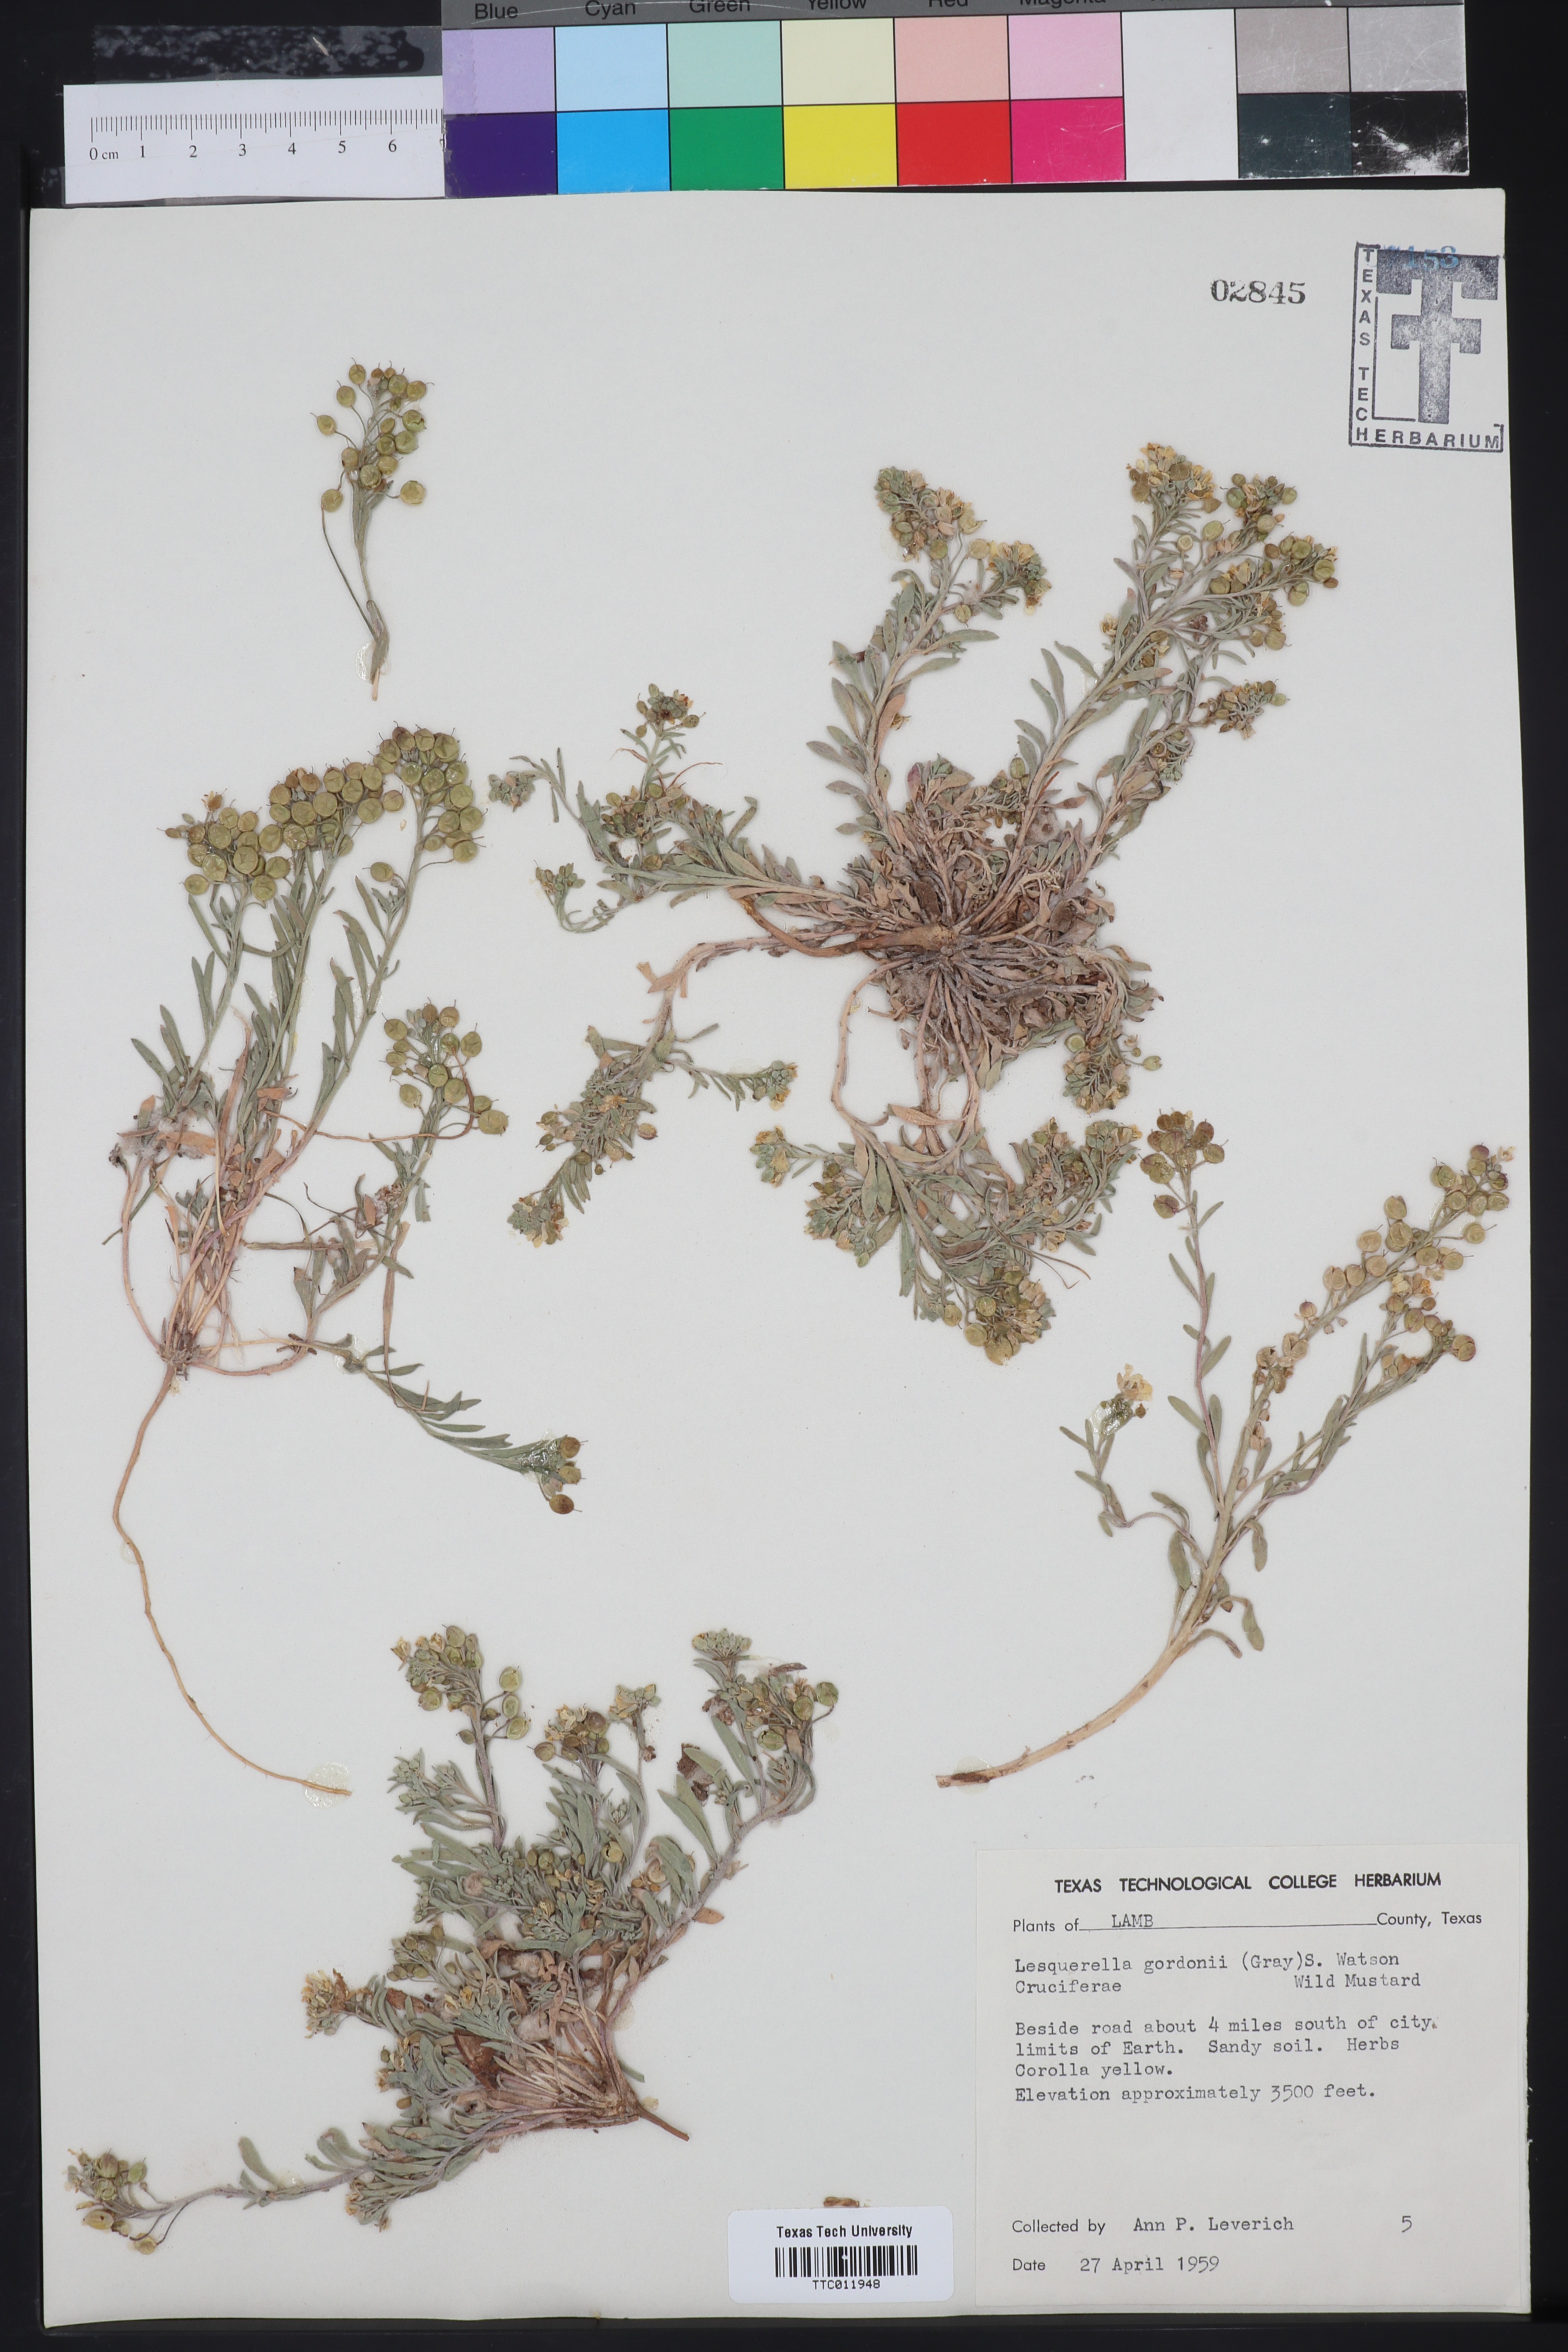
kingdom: Plantae
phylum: Tracheophyta
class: Magnoliopsida
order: Brassicales
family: Brassicaceae
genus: Physaria
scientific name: Physaria gordonii
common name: Gordon's bladderpod
